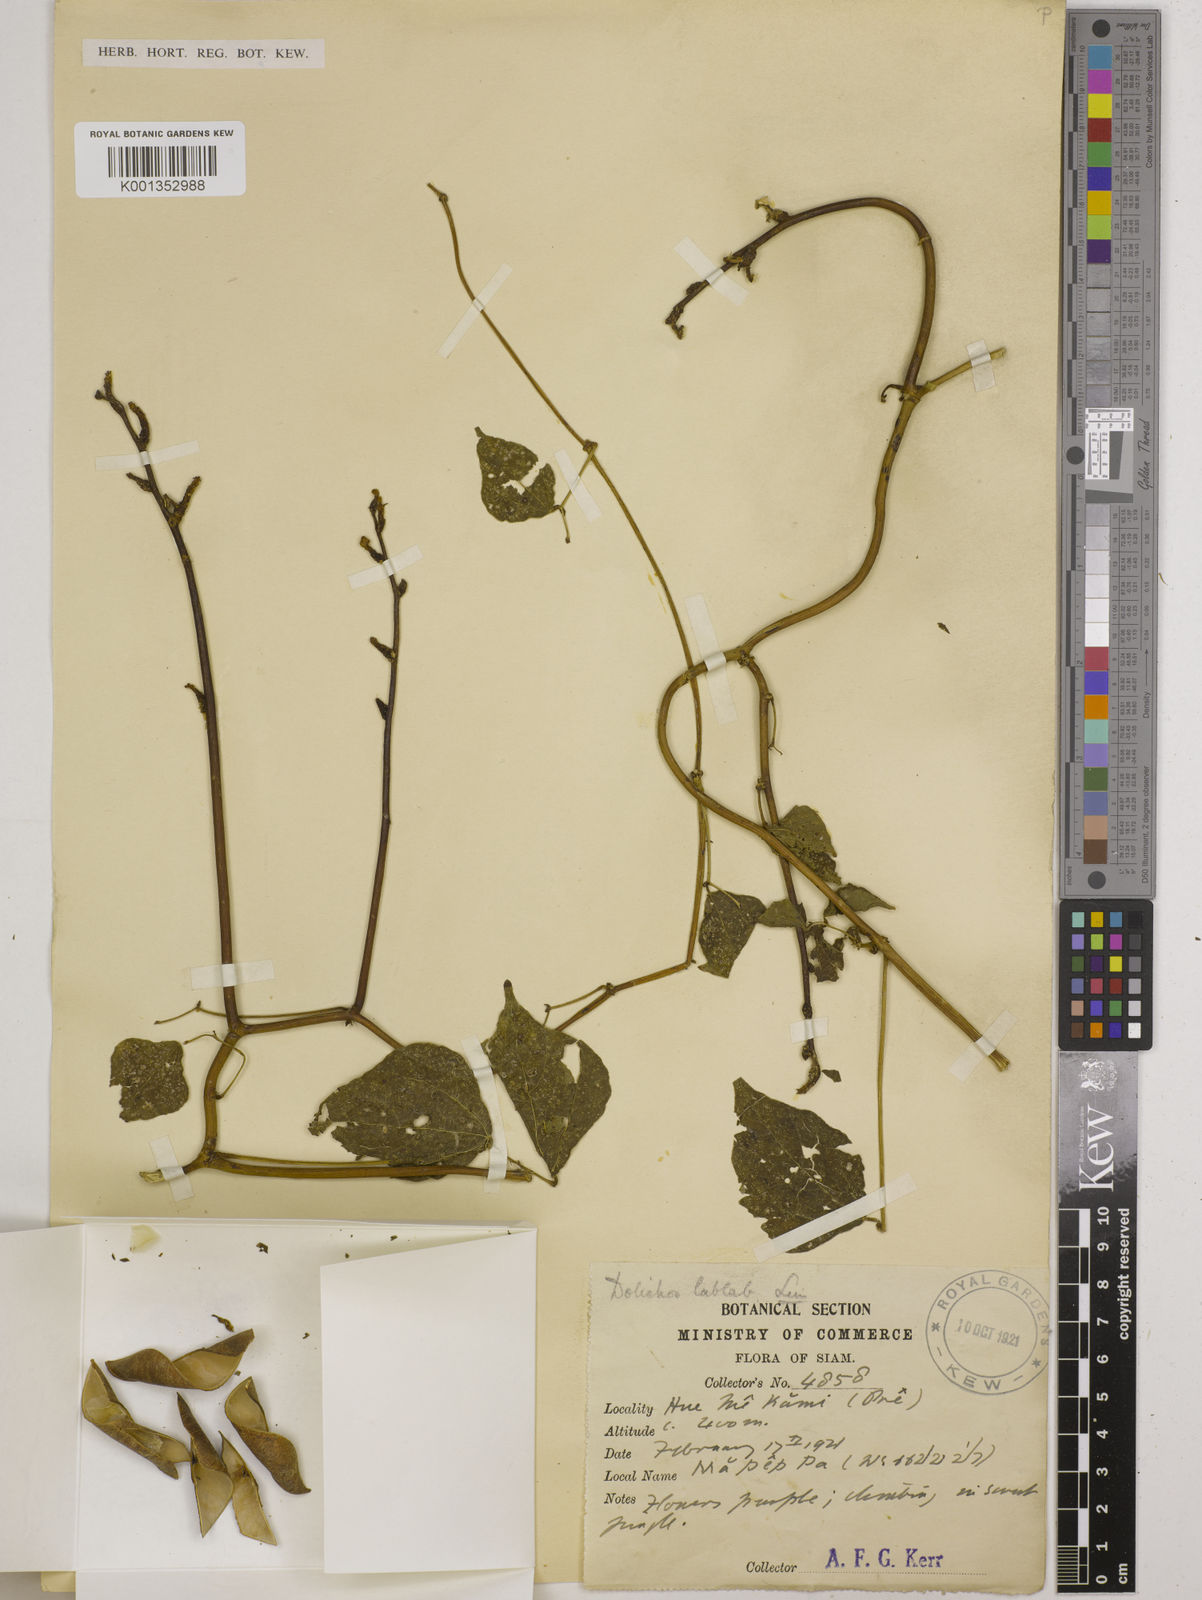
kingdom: Plantae
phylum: Tracheophyta
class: Magnoliopsida
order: Fabales
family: Fabaceae
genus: Lablab
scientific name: Lablab purpureus
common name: Lablab-bean
